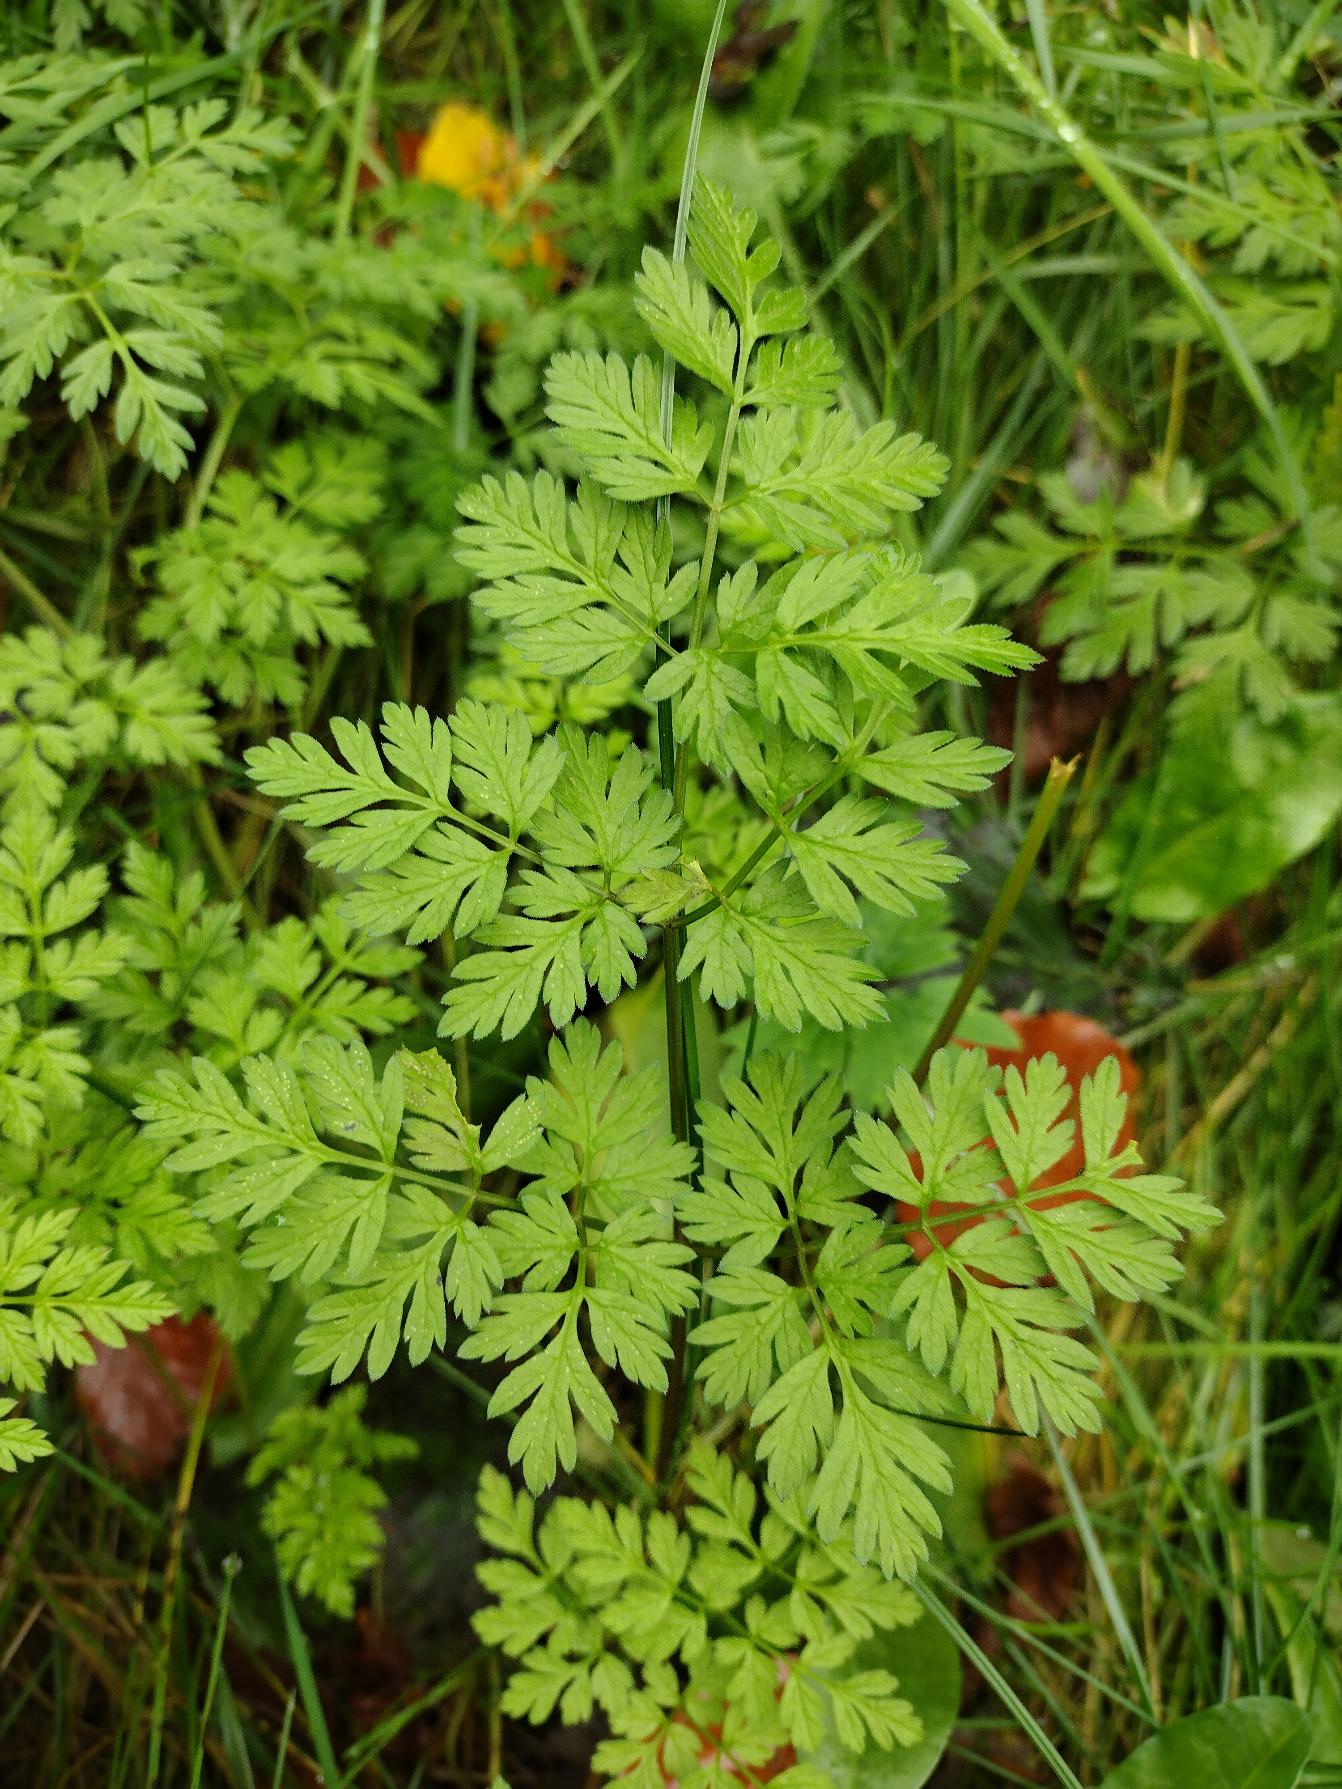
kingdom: Plantae
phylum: Tracheophyta
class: Magnoliopsida
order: Apiales
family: Apiaceae
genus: Anthriscus
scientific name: Anthriscus sylvestris
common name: Vild kørvel
